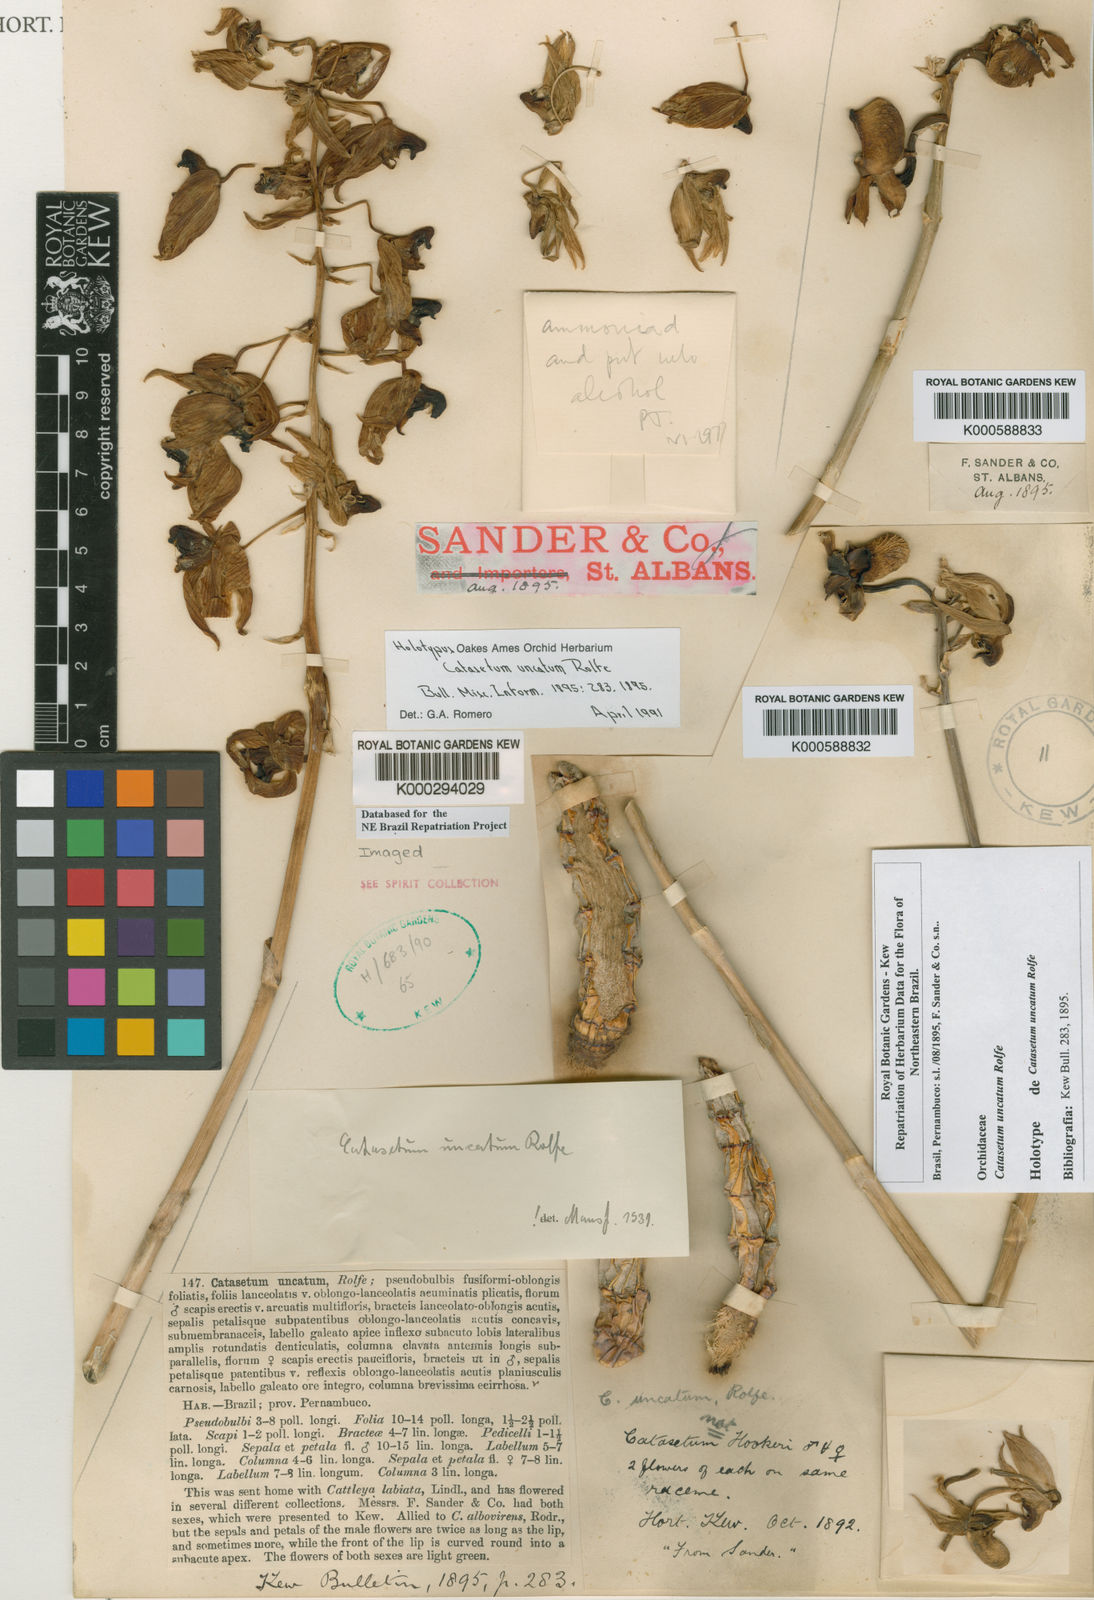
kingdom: Plantae
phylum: Tracheophyta
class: Liliopsida
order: Asparagales
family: Orchidaceae
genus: Catasetum
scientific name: Catasetum uncatum
